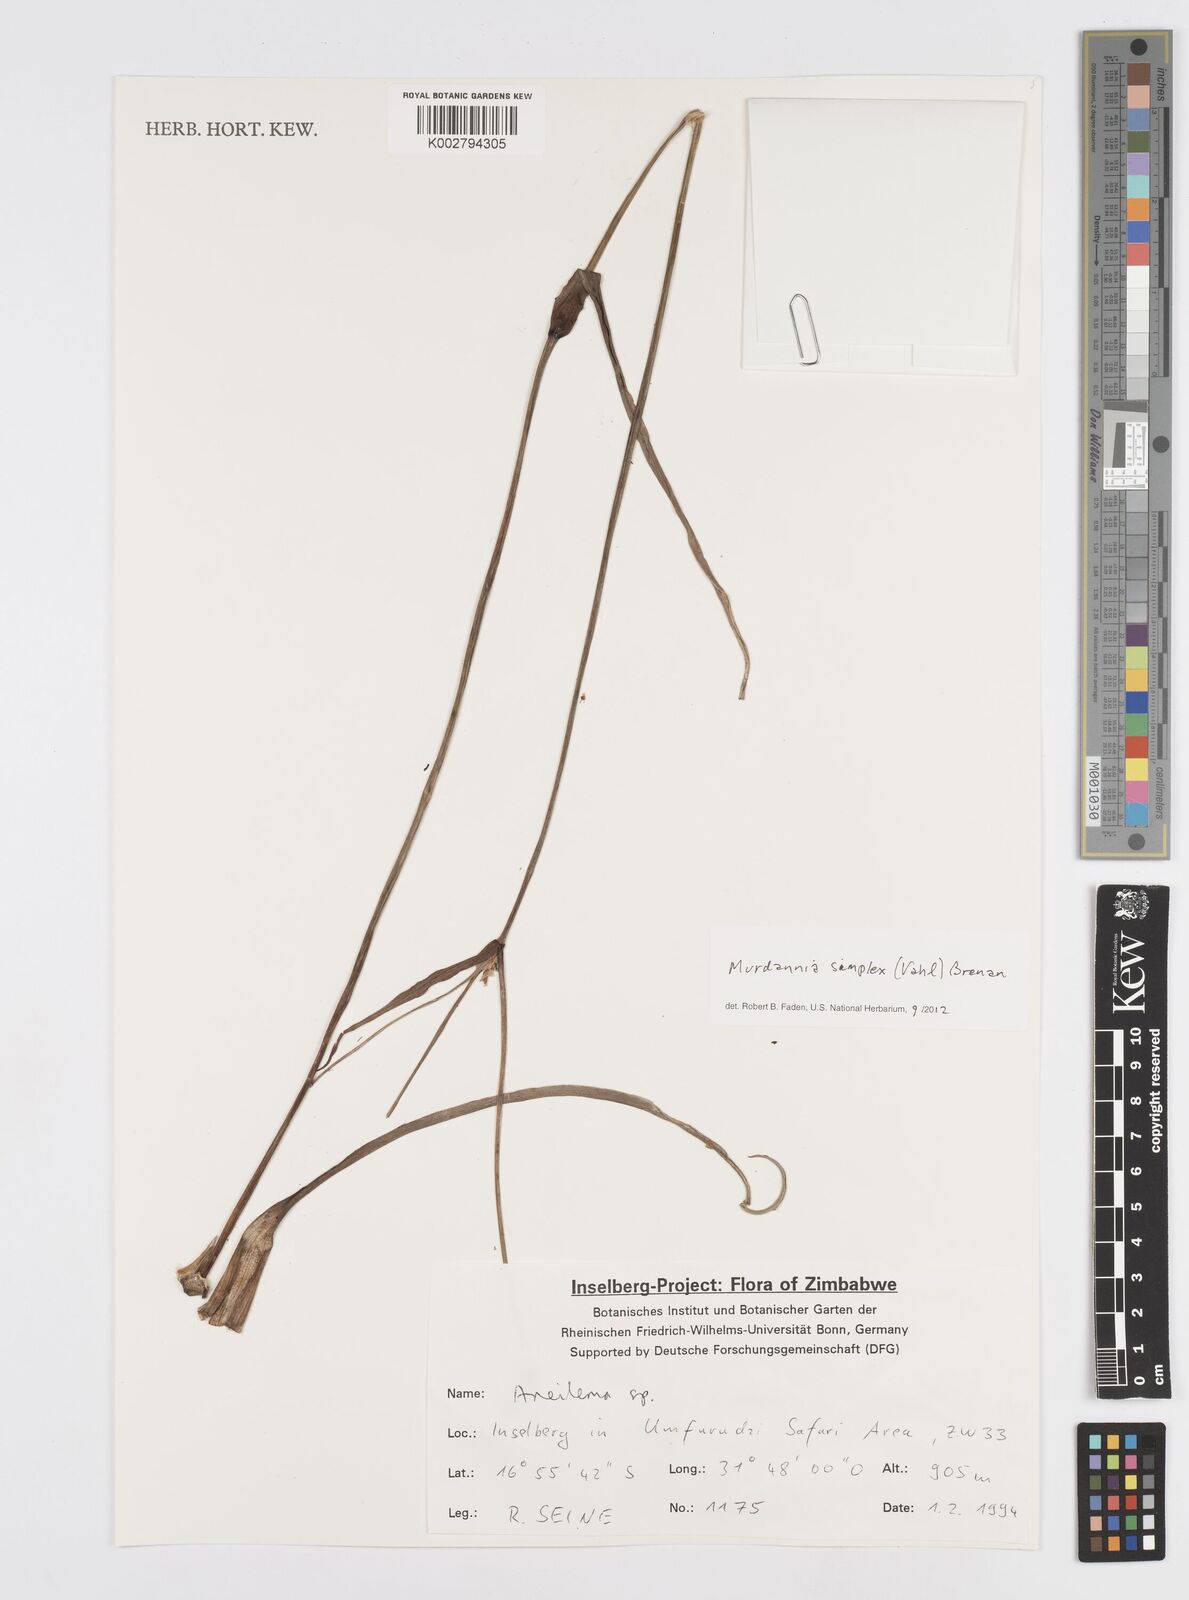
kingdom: Plantae
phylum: Tracheophyta
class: Liliopsida
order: Commelinales
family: Commelinaceae
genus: Murdannia
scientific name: Murdannia simplex
